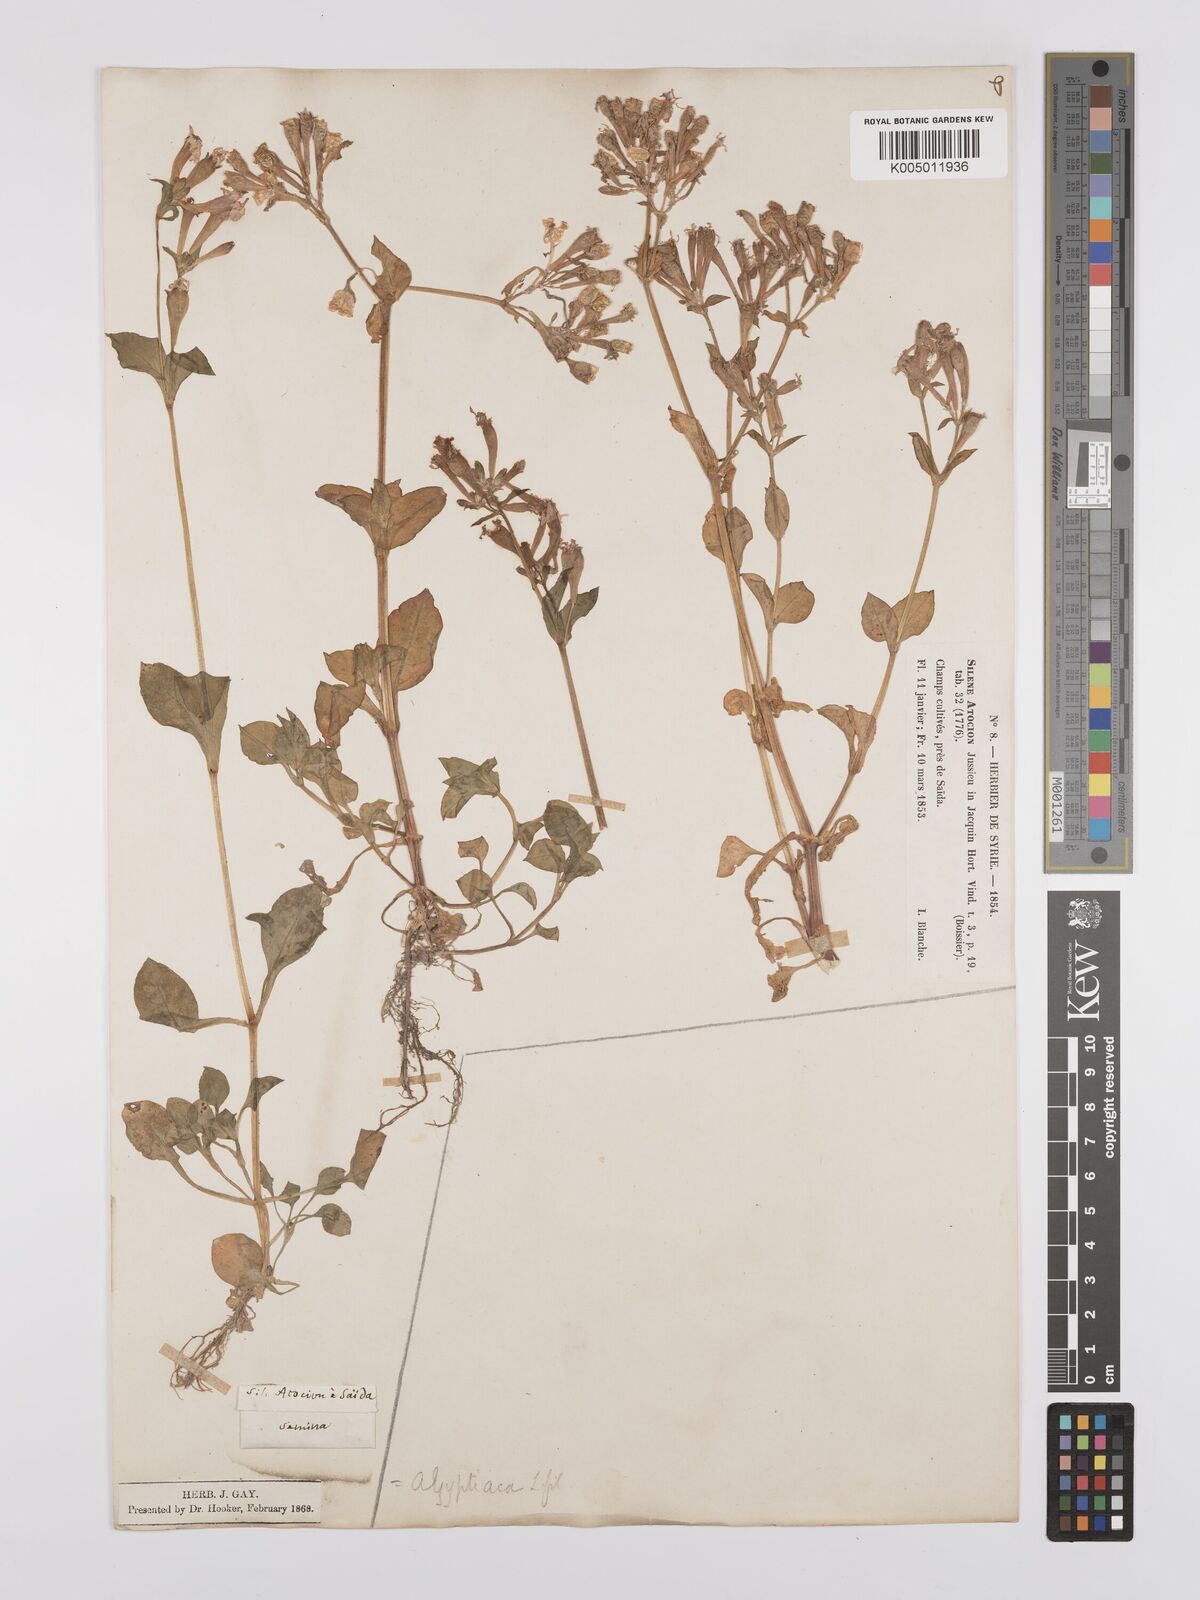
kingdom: Plantae
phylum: Tracheophyta
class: Magnoliopsida
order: Caryophyllales
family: Caryophyllaceae
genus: Silene
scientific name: Silene aegyptiaca
